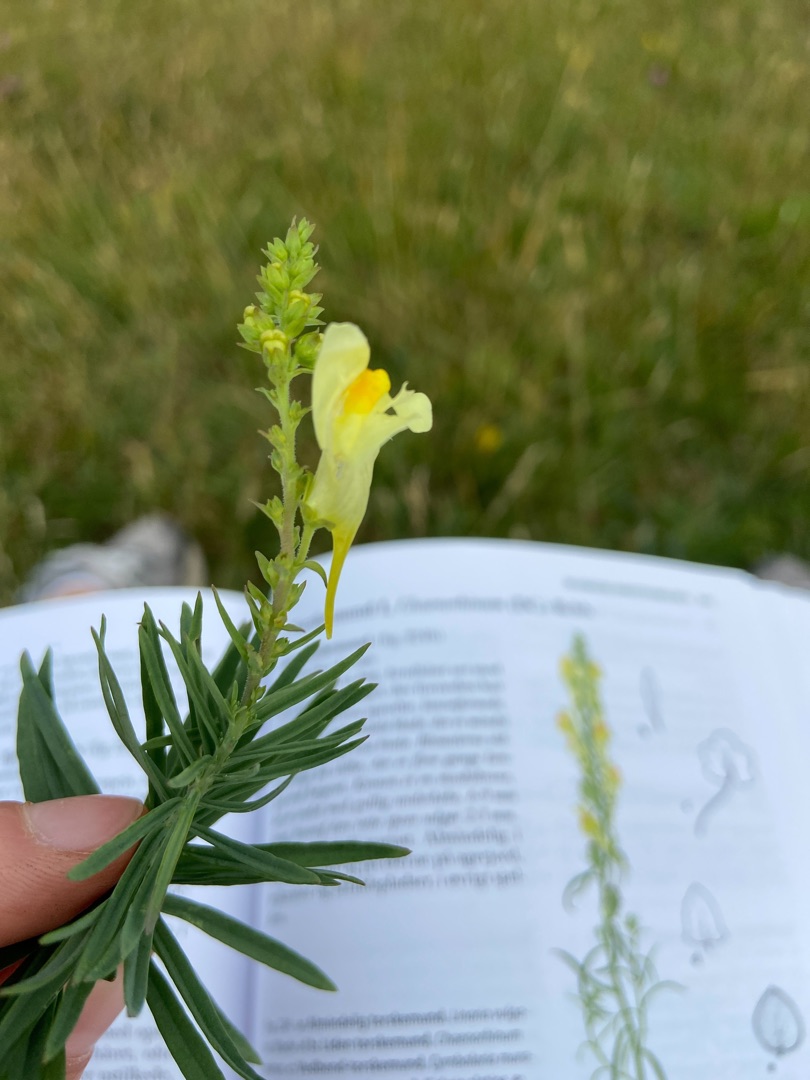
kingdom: Plantae
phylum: Tracheophyta
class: Magnoliopsida
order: Lamiales
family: Plantaginaceae
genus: Linaria
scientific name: Linaria vulgaris
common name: Almindelig torskemund
